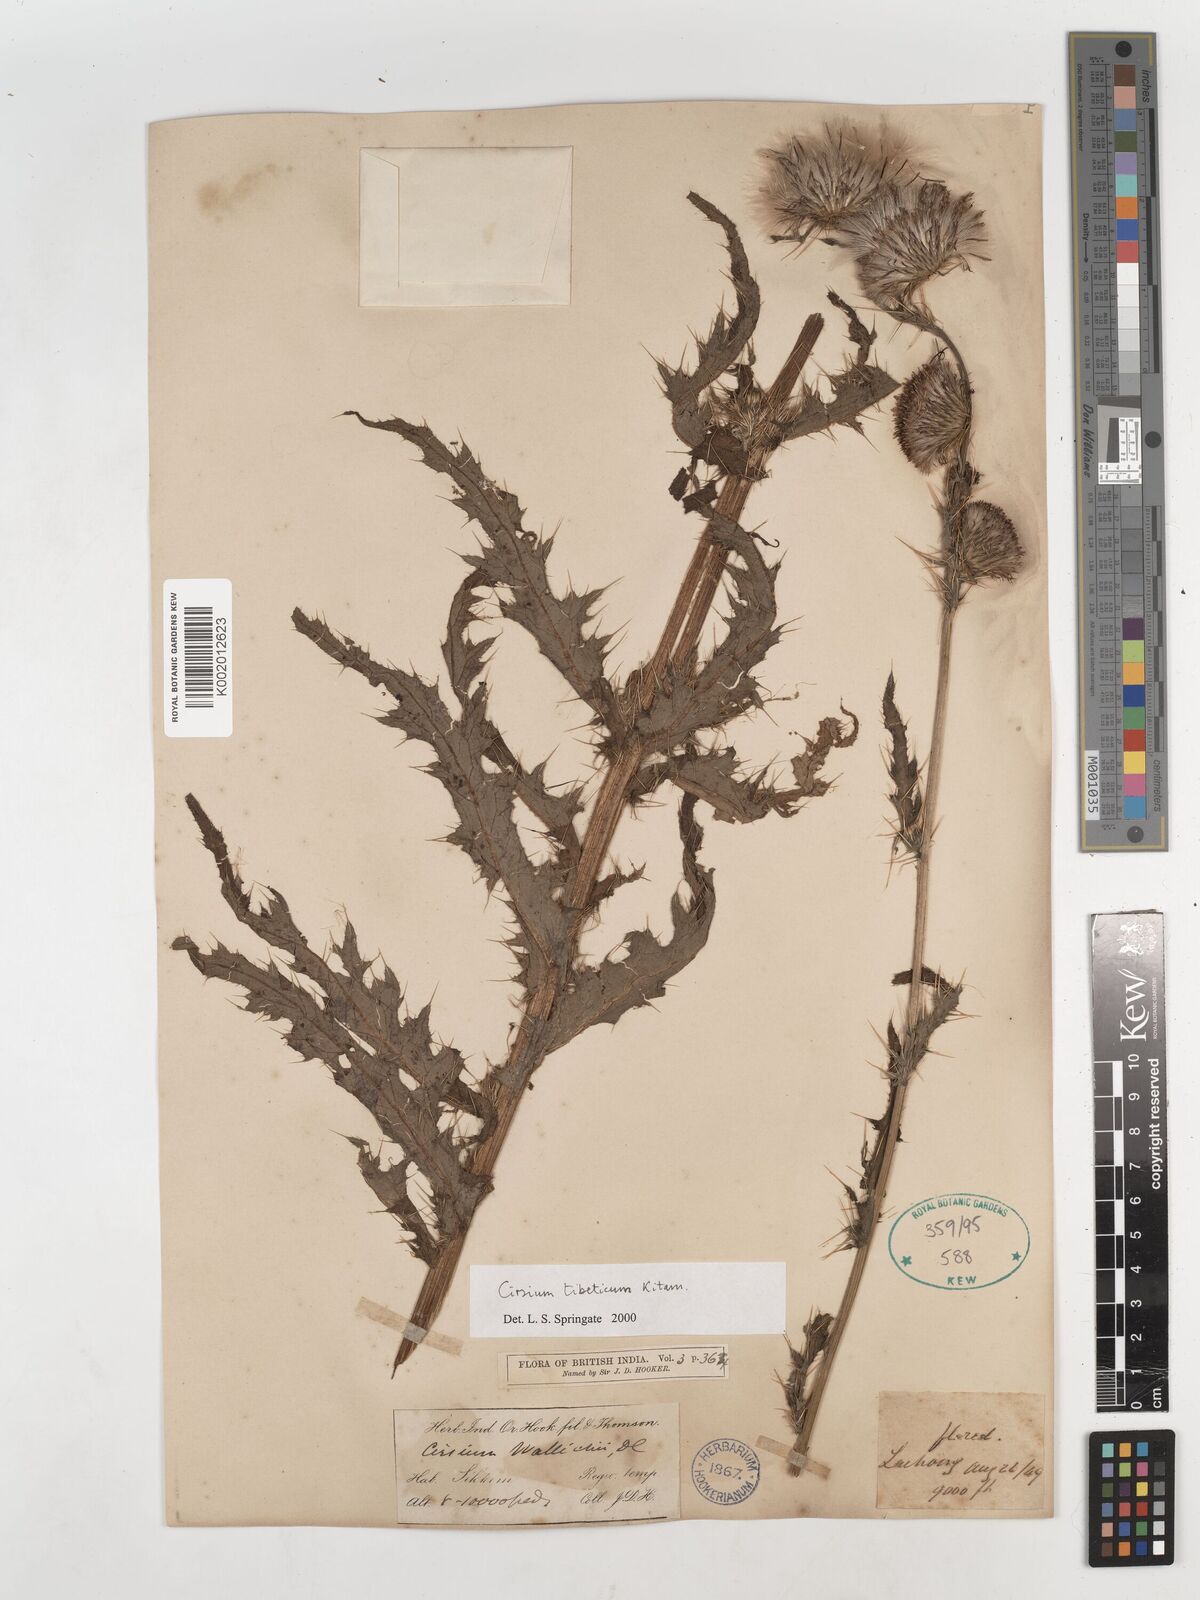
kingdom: Plantae
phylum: Tracheophyta
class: Magnoliopsida
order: Asterales
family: Asteraceae
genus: Cirsium
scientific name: Cirsium wallichii
